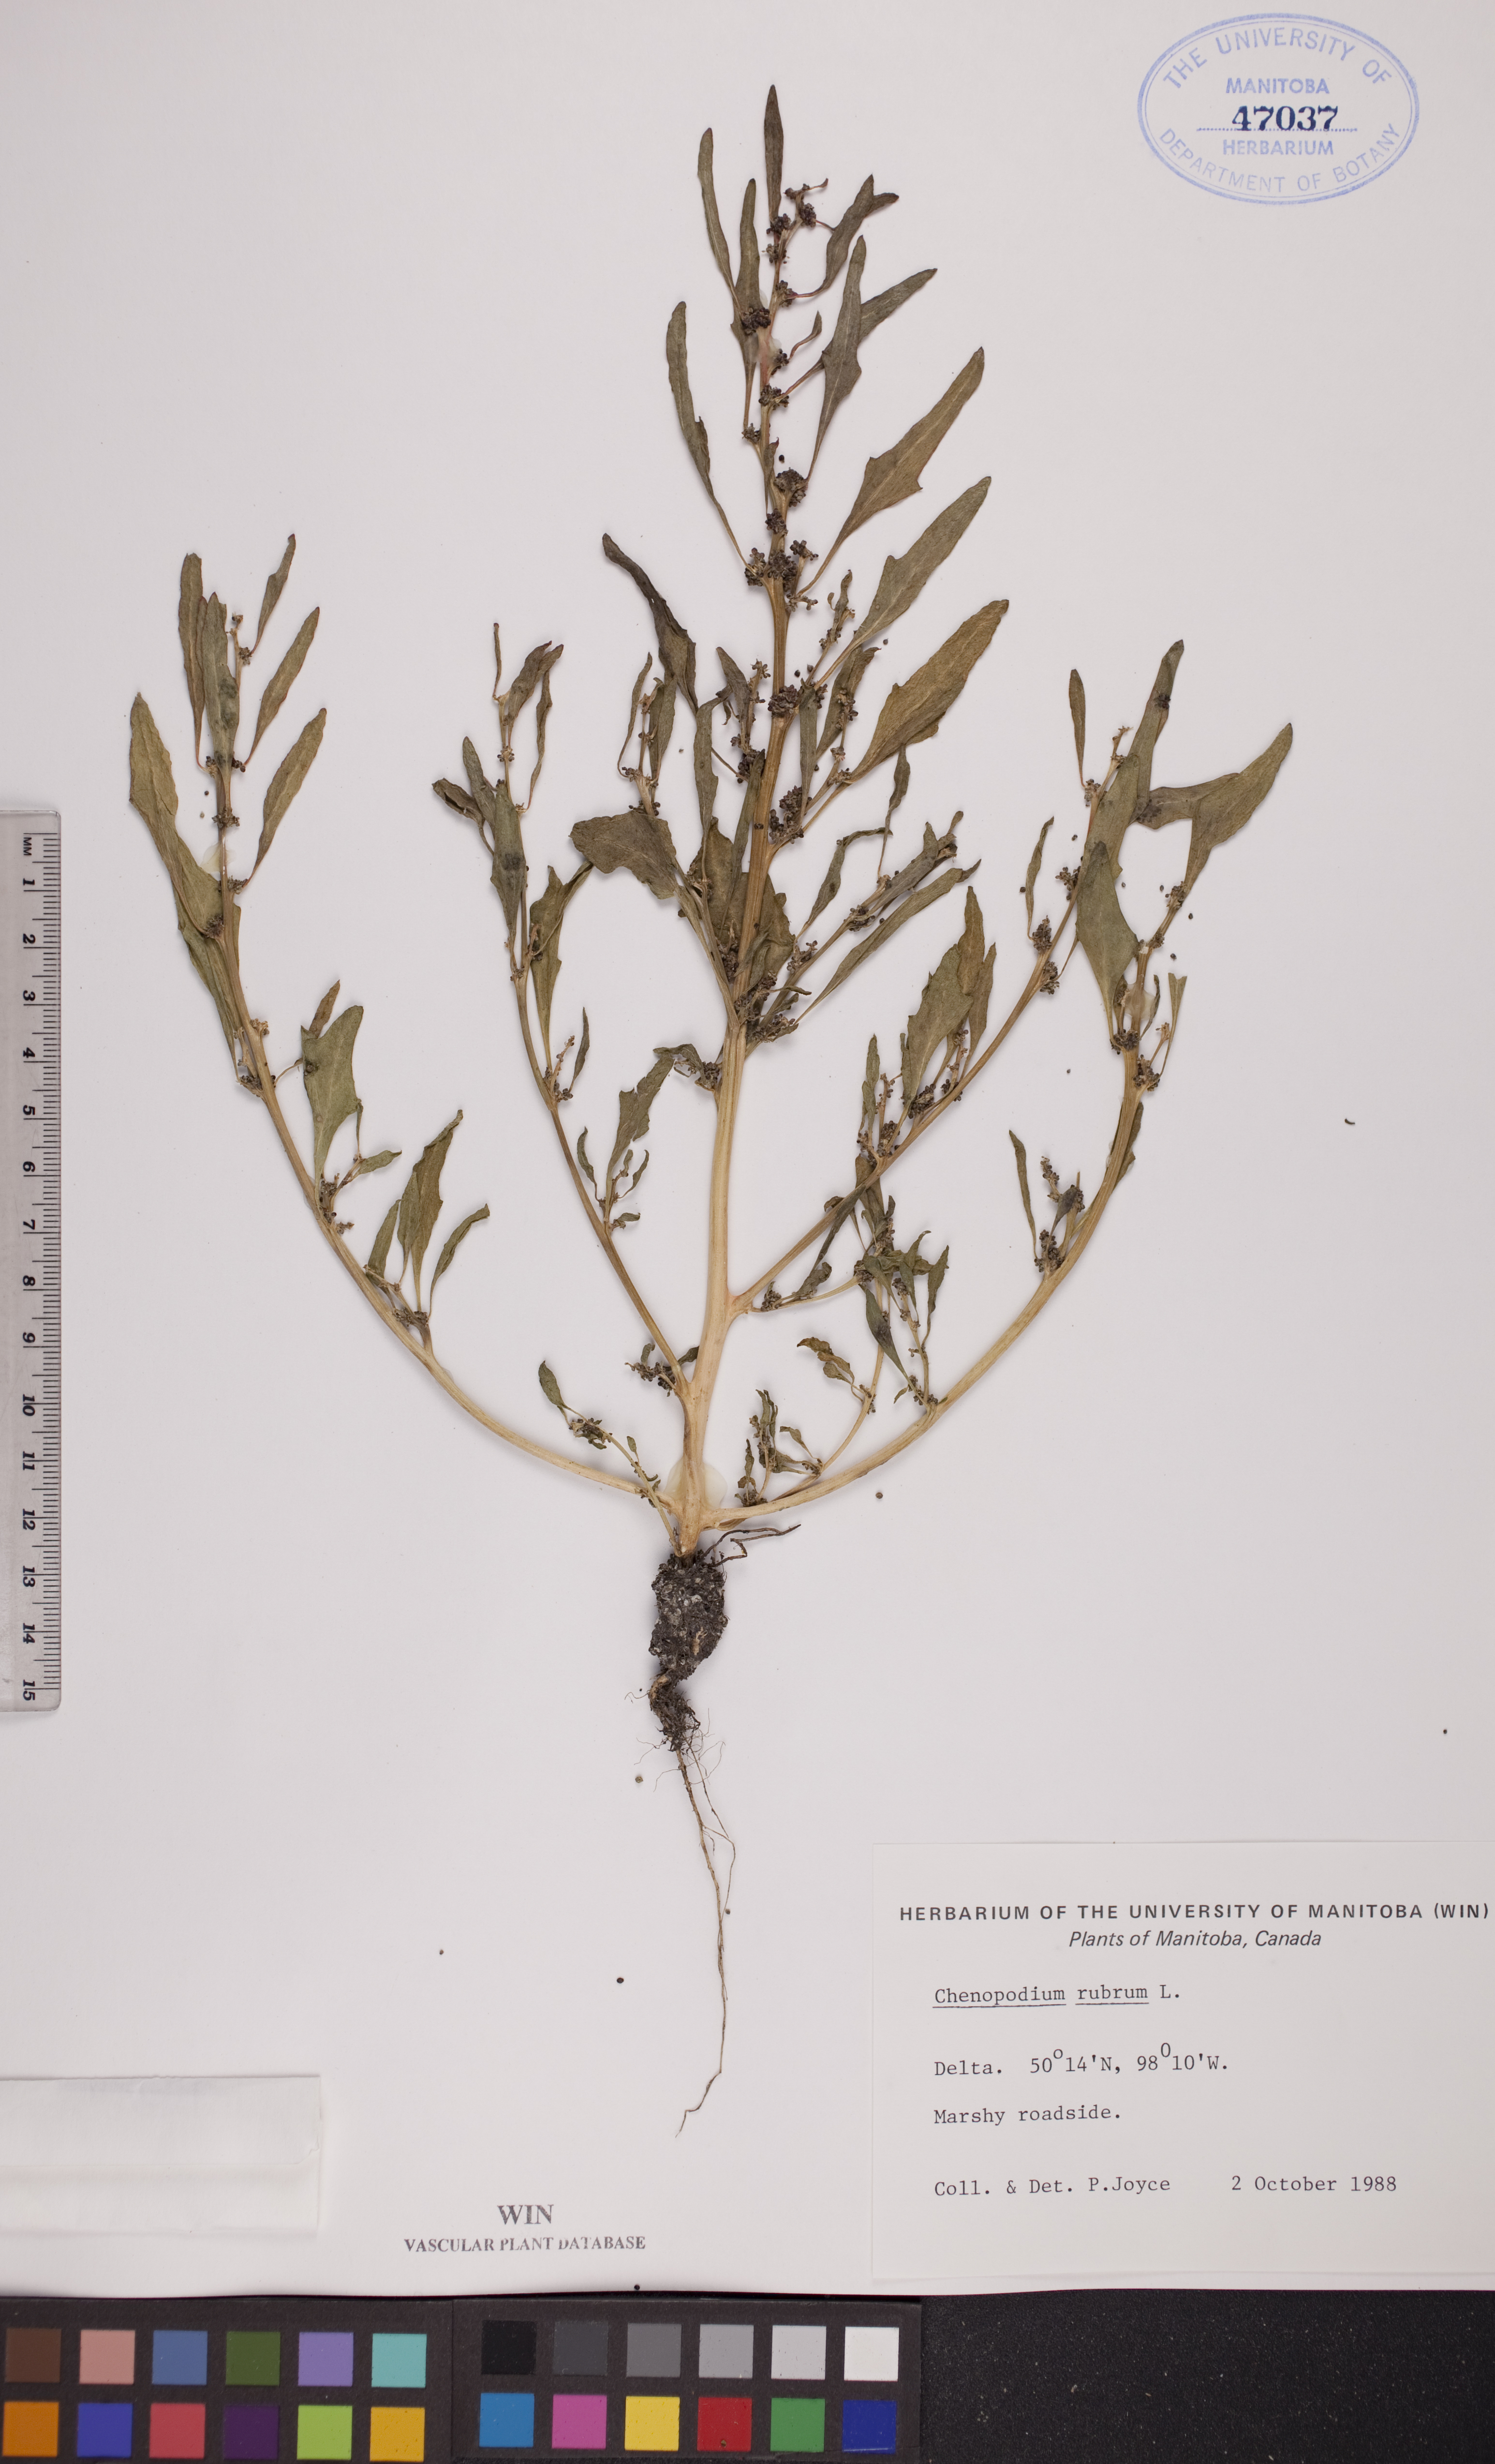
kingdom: Plantae
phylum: Tracheophyta
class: Magnoliopsida
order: Caryophyllales
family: Amaranthaceae
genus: Oxybasis
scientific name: Oxybasis rubra
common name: Red goosefoot
